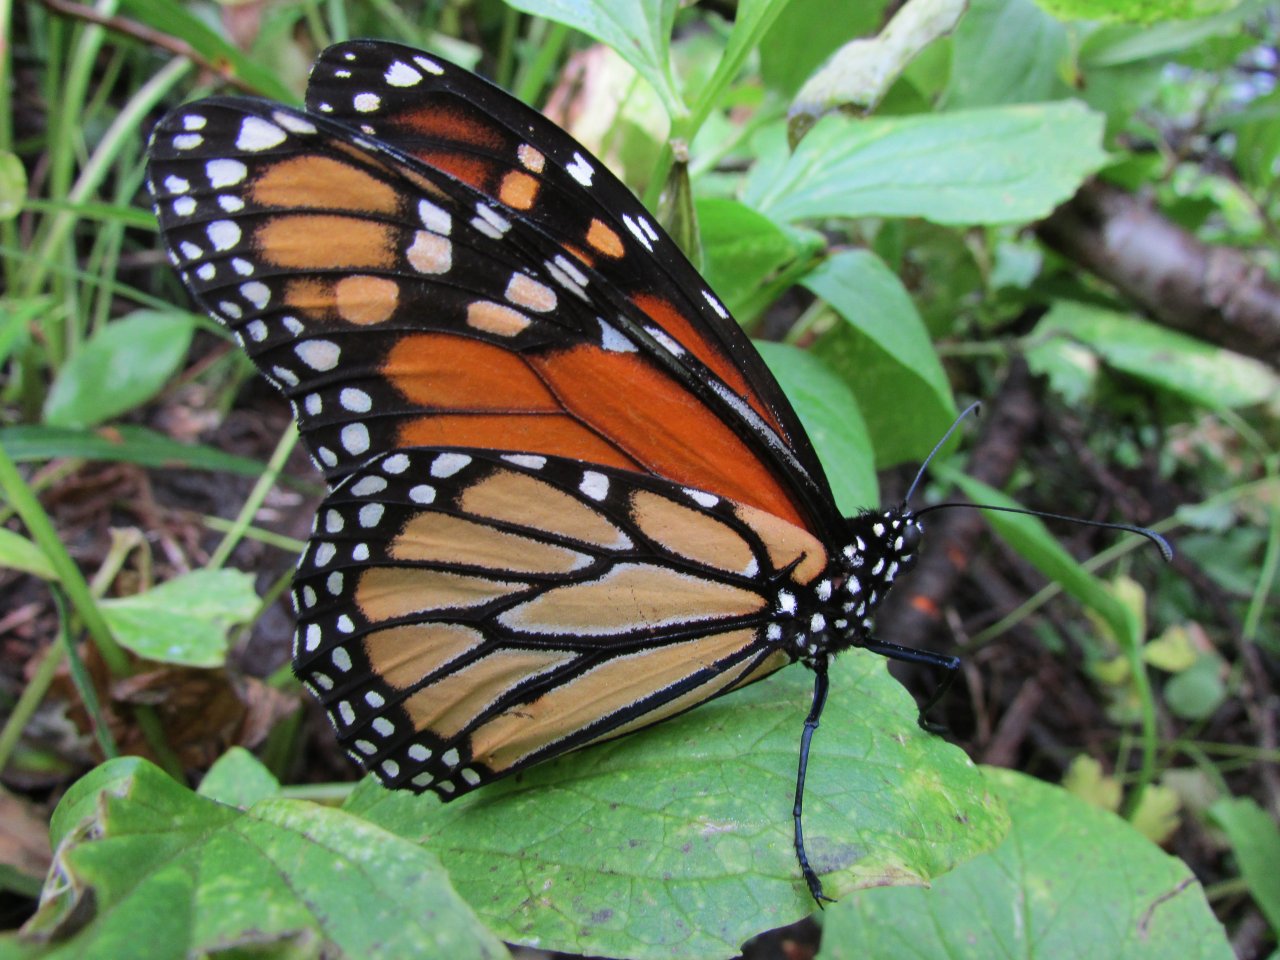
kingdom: Animalia
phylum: Arthropoda
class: Insecta
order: Lepidoptera
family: Nymphalidae
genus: Danaus
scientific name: Danaus plexippus
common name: Monarch
